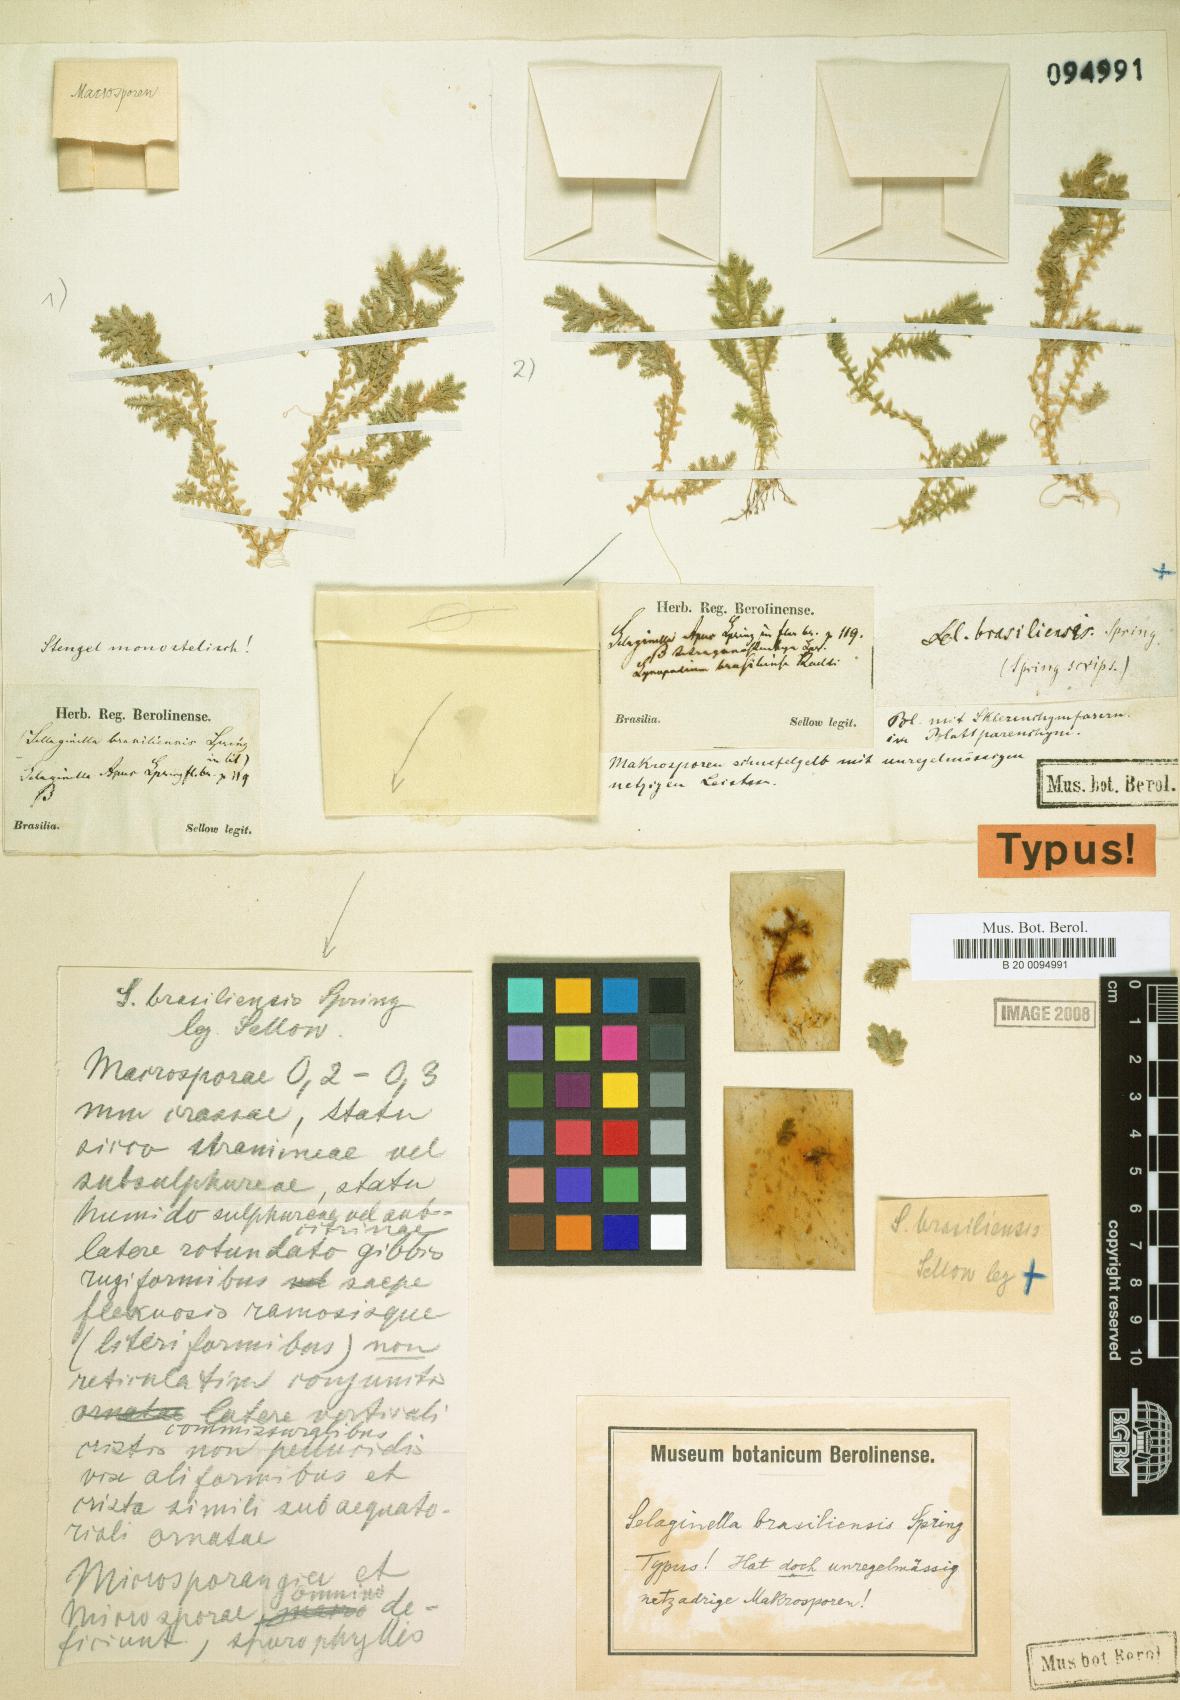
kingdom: Plantae
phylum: Tracheophyta
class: Lycopodiopsida
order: Selaginellales
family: Selaginellaceae
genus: Selaginella
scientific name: Selaginella muscosa
